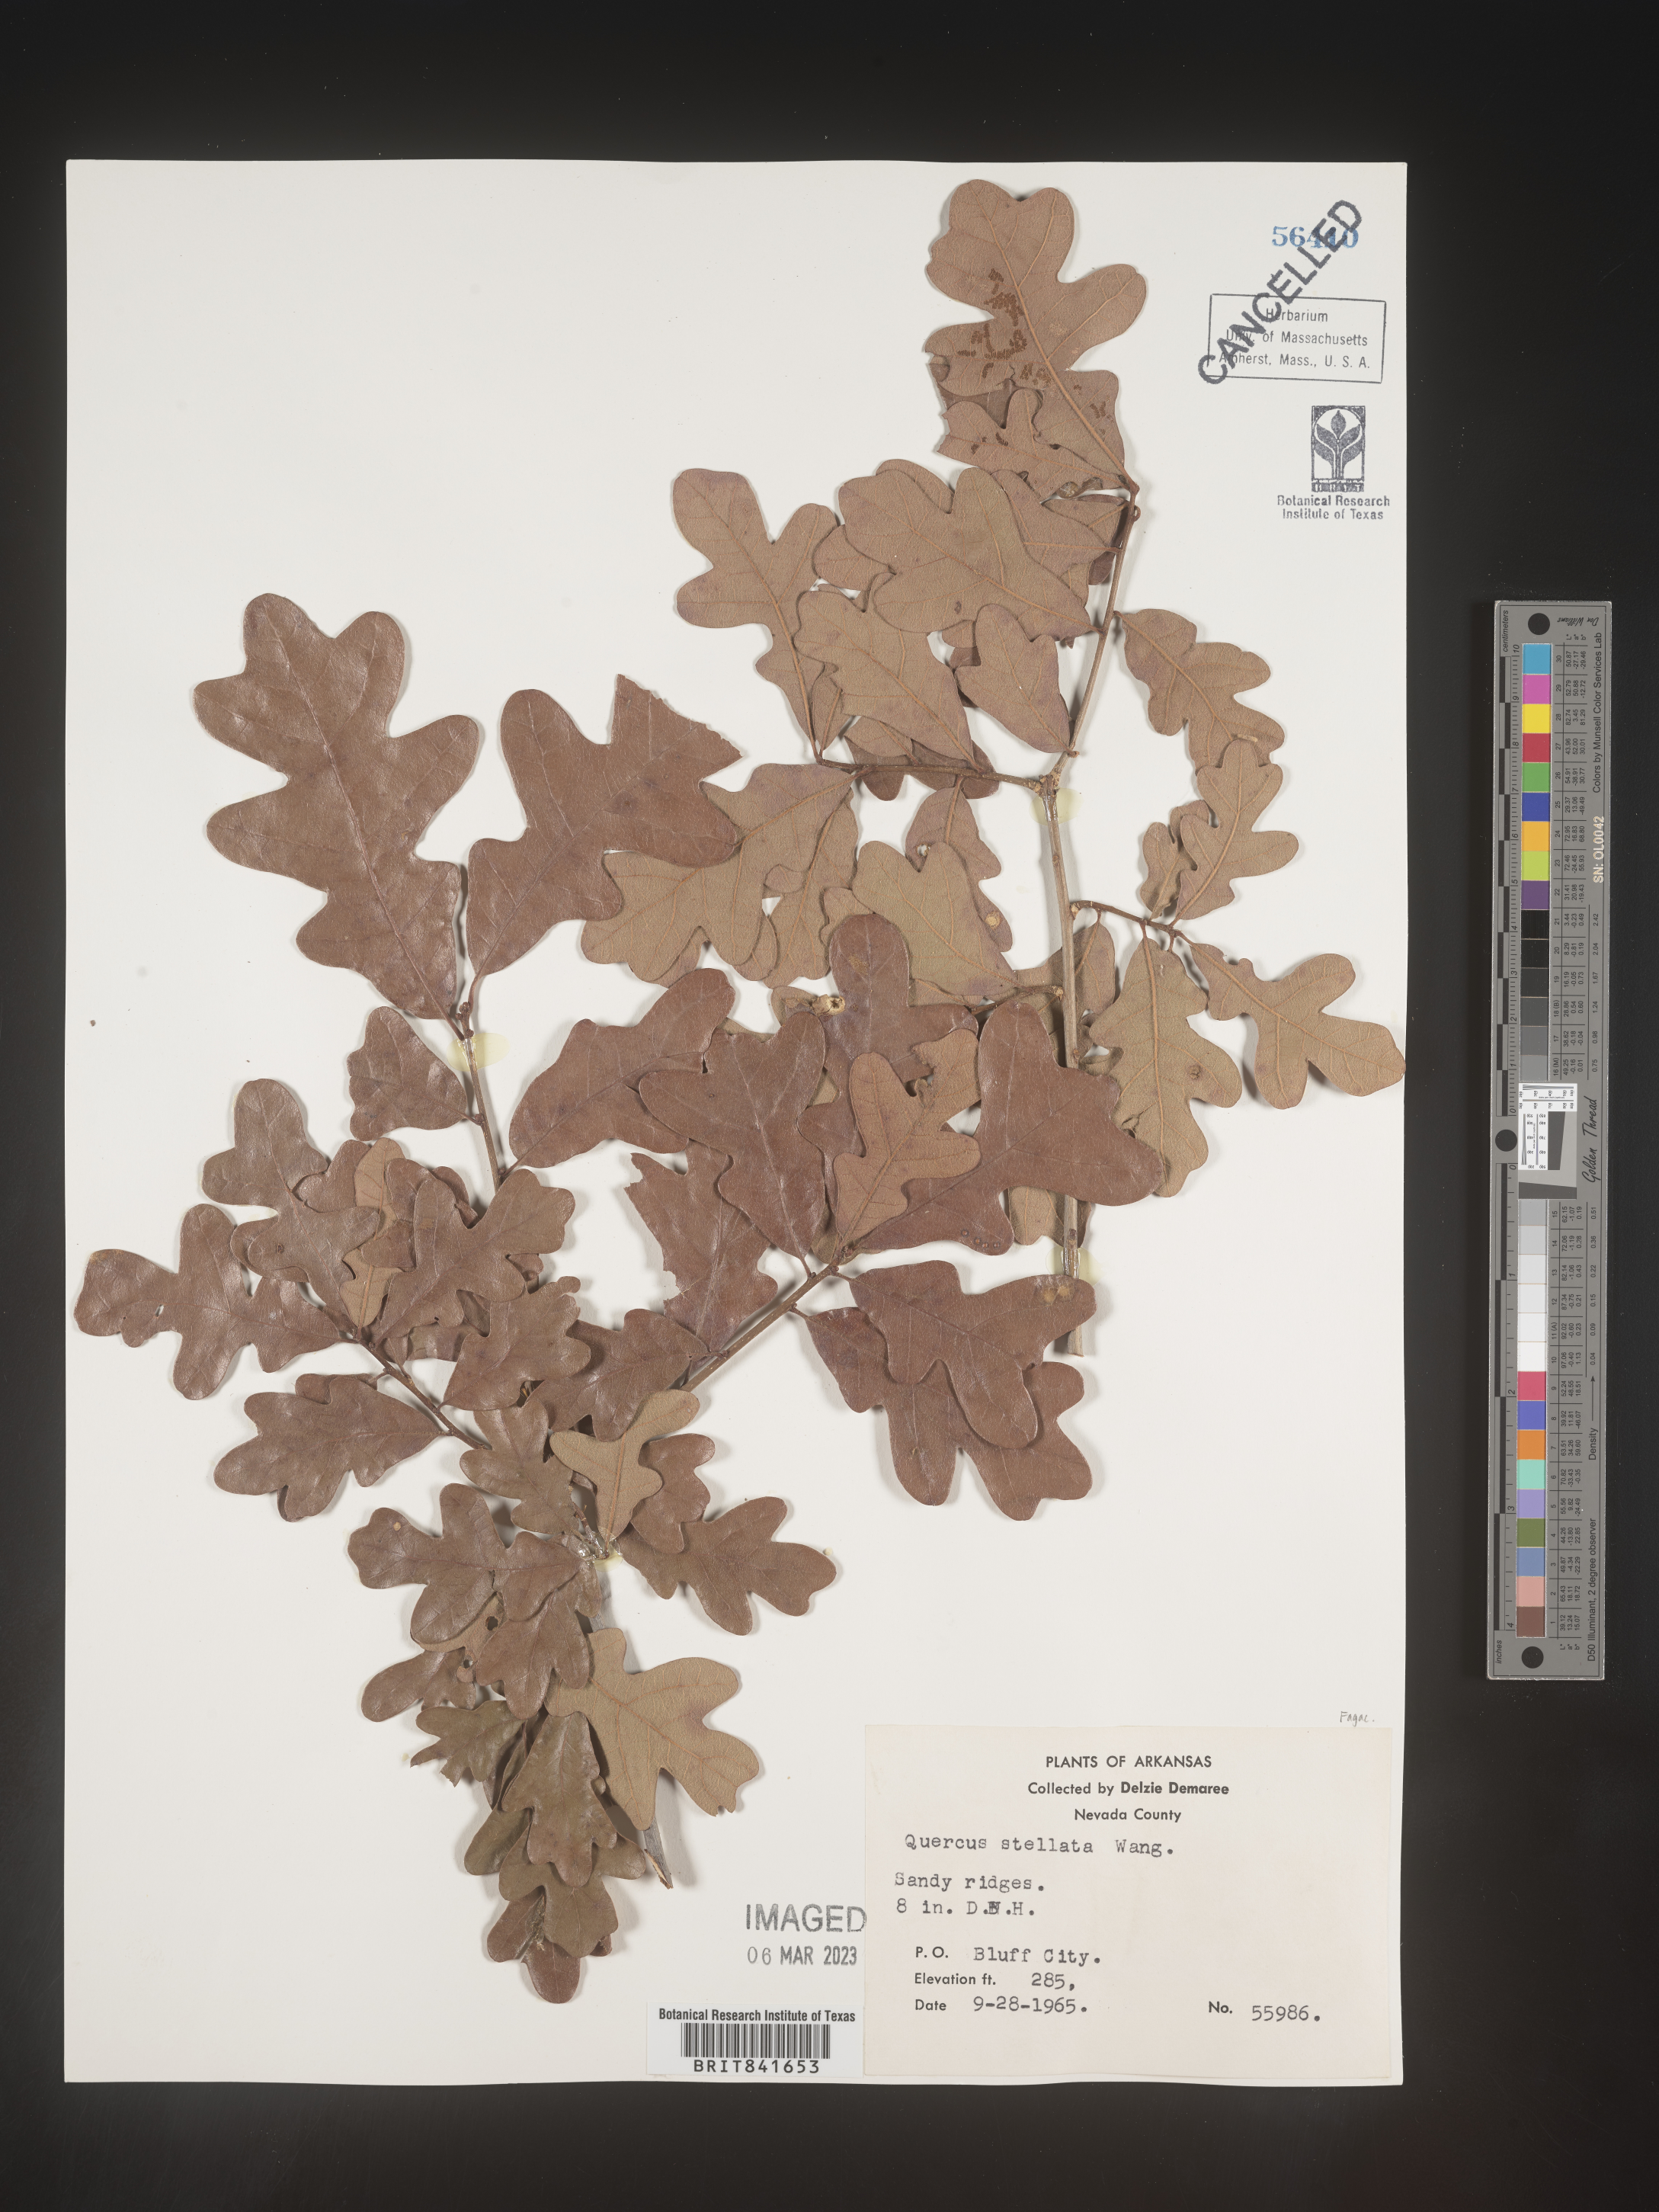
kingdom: Plantae
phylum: Tracheophyta
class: Magnoliopsida
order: Fagales
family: Fagaceae
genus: Quercus
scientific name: Quercus stellata
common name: Post oak
